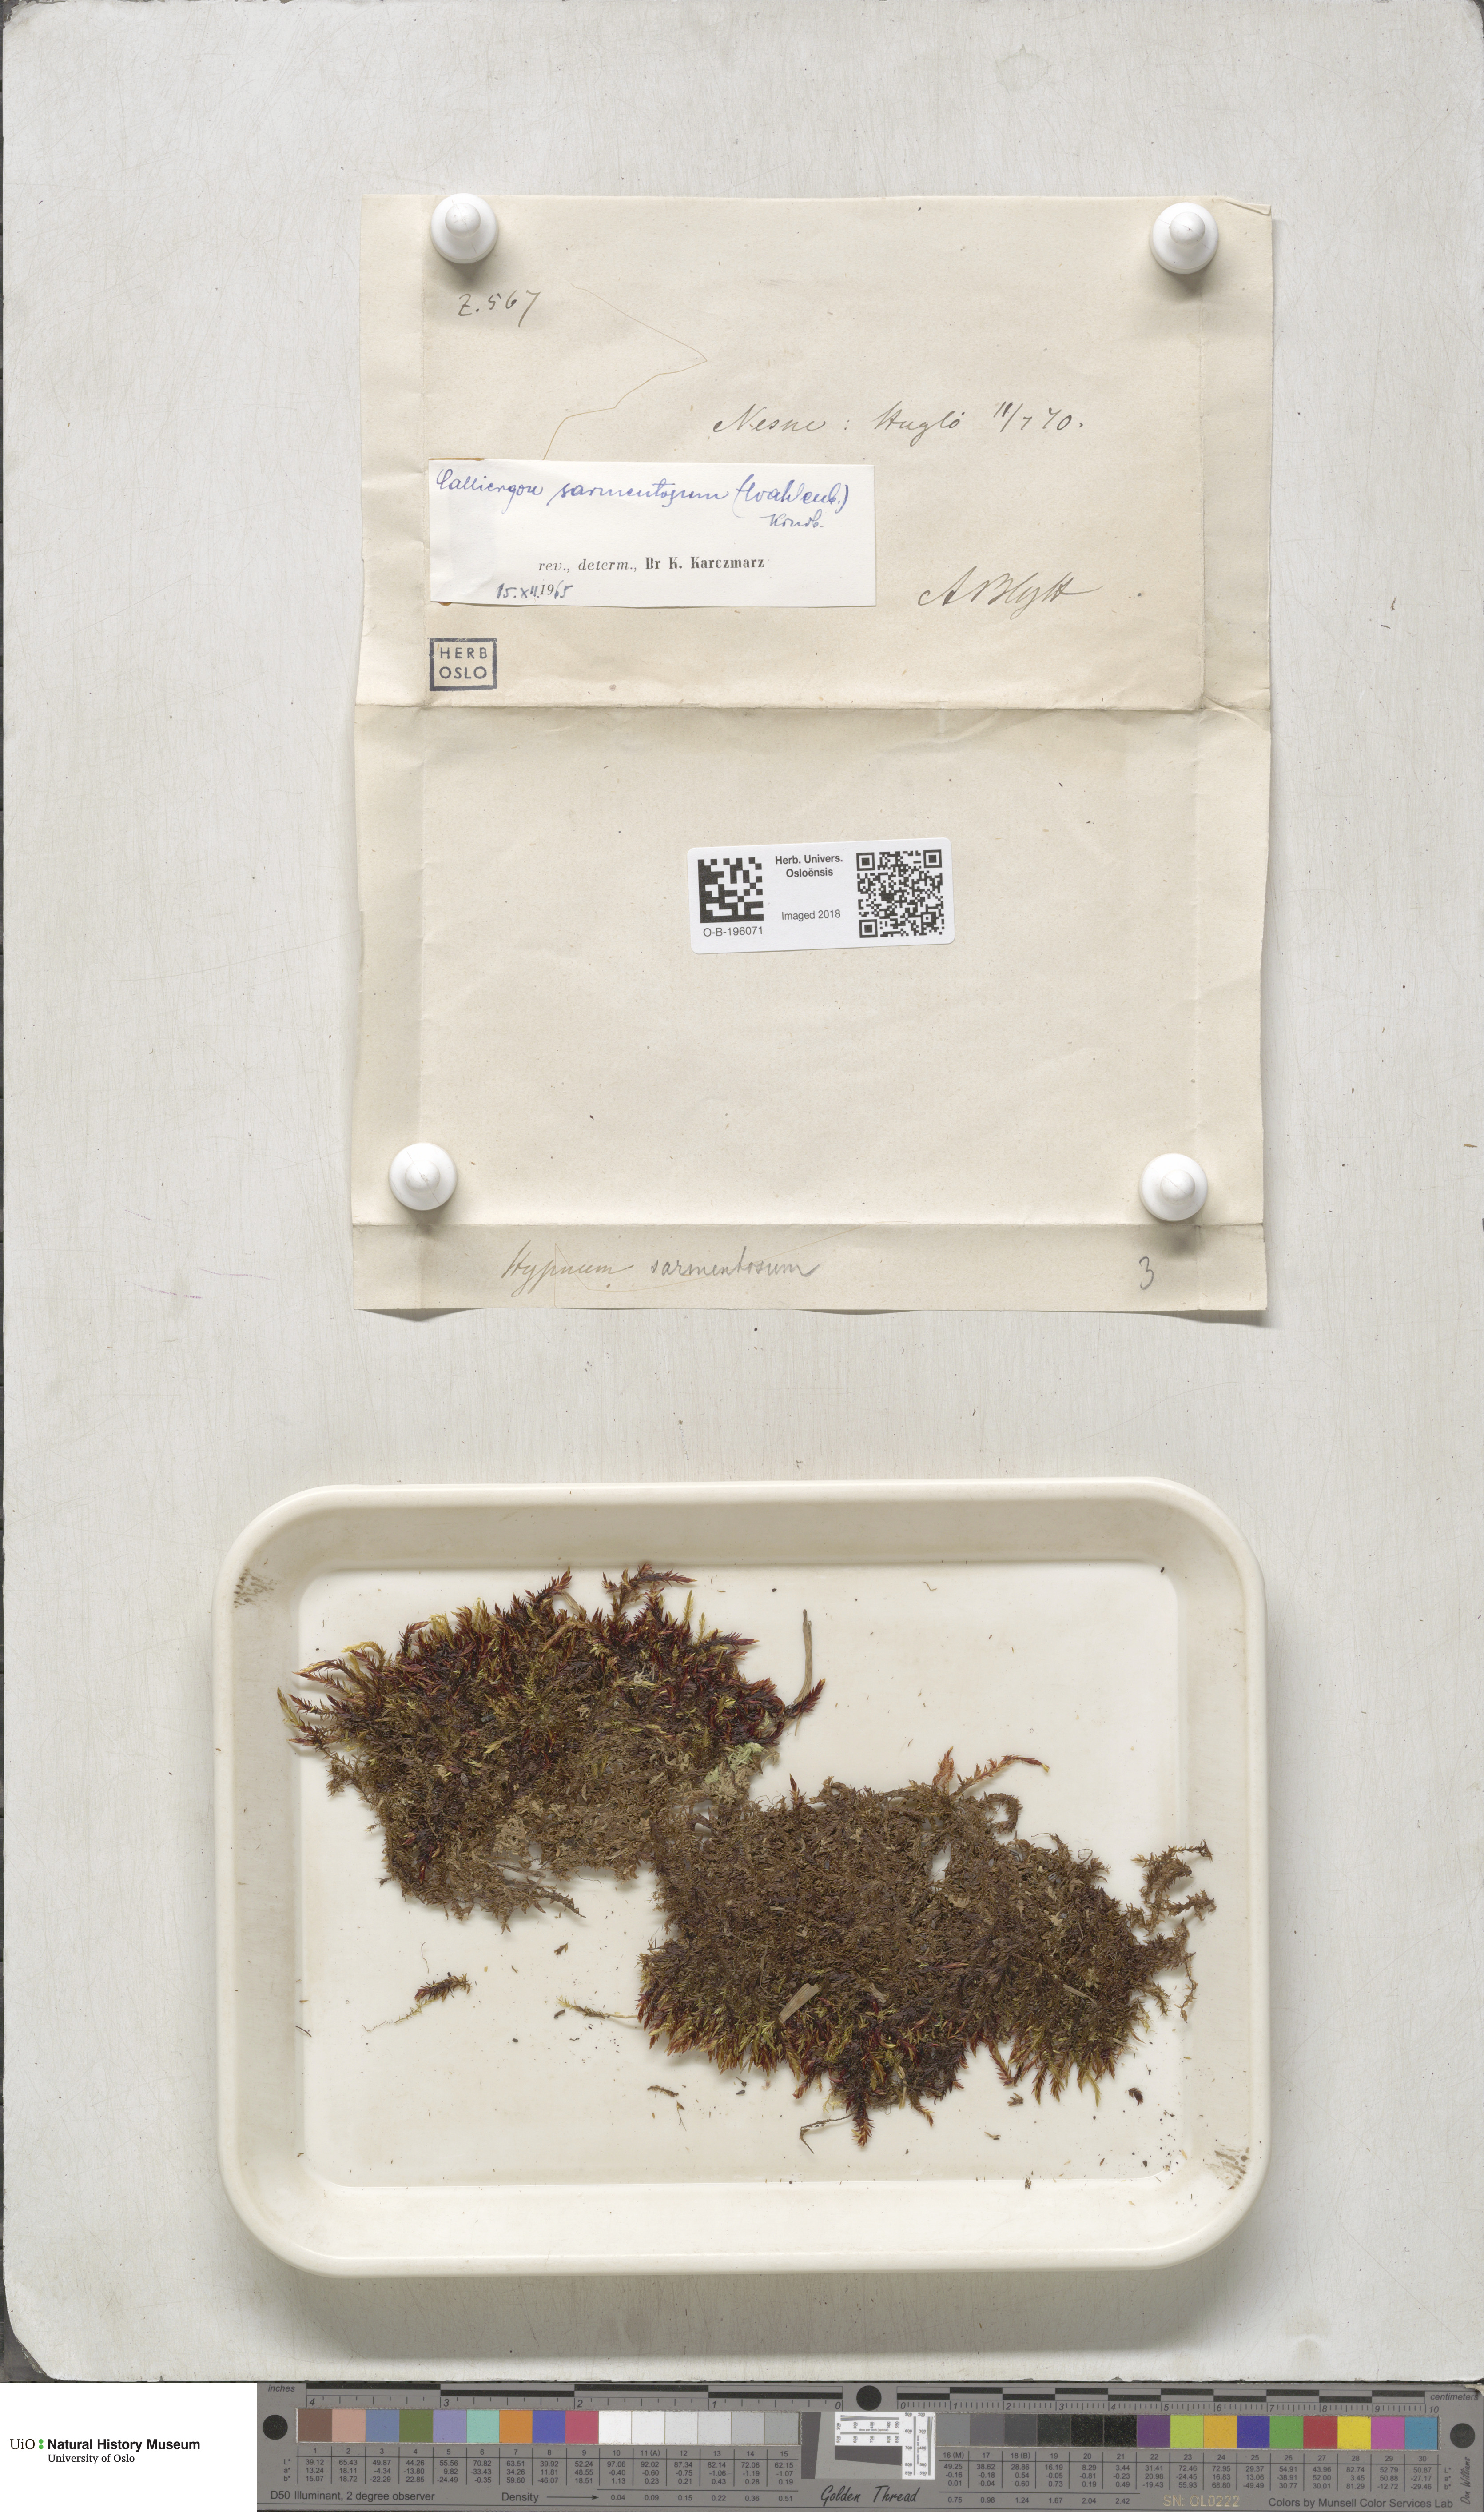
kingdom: Plantae
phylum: Bryophyta
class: Bryopsida
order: Hypnales
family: Calliergonaceae
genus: Sarmentypnum
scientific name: Sarmentypnum sarmentosum
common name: Twiggy spoon moss
